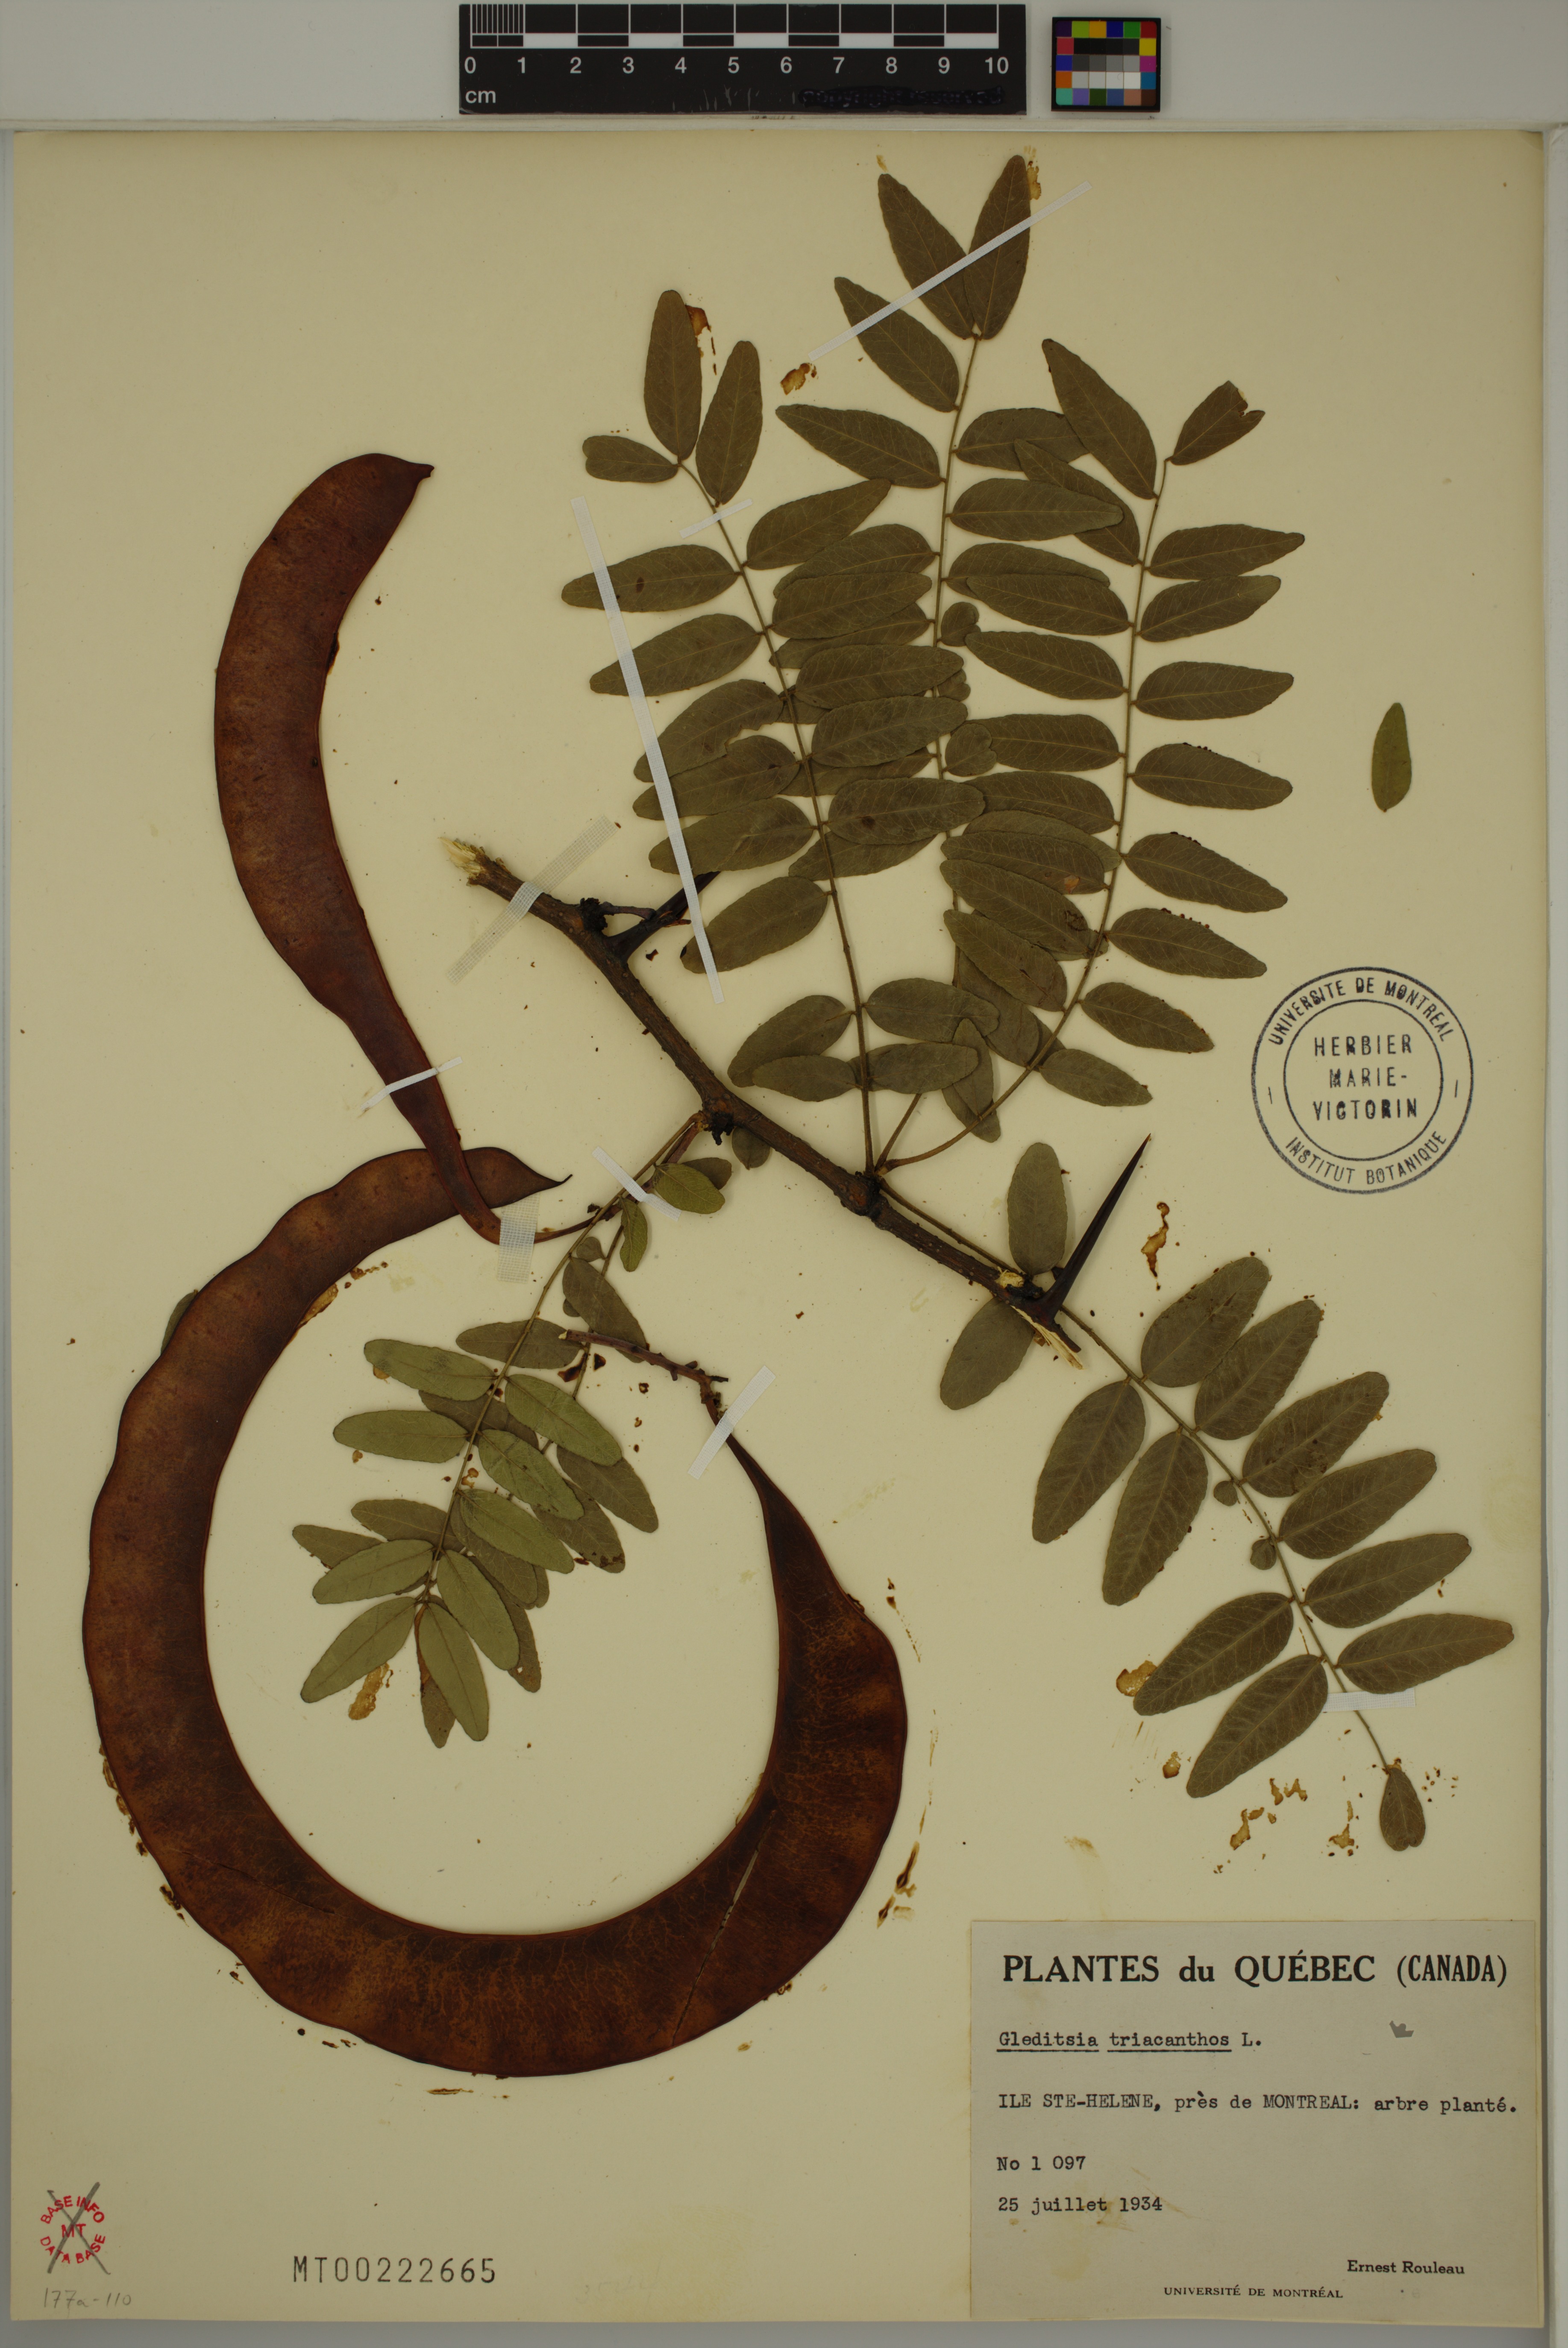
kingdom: Plantae
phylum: Tracheophyta
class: Magnoliopsida
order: Fabales
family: Fabaceae
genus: Gleditsia
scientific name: Gleditsia triacanthos
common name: Common honeylocust
